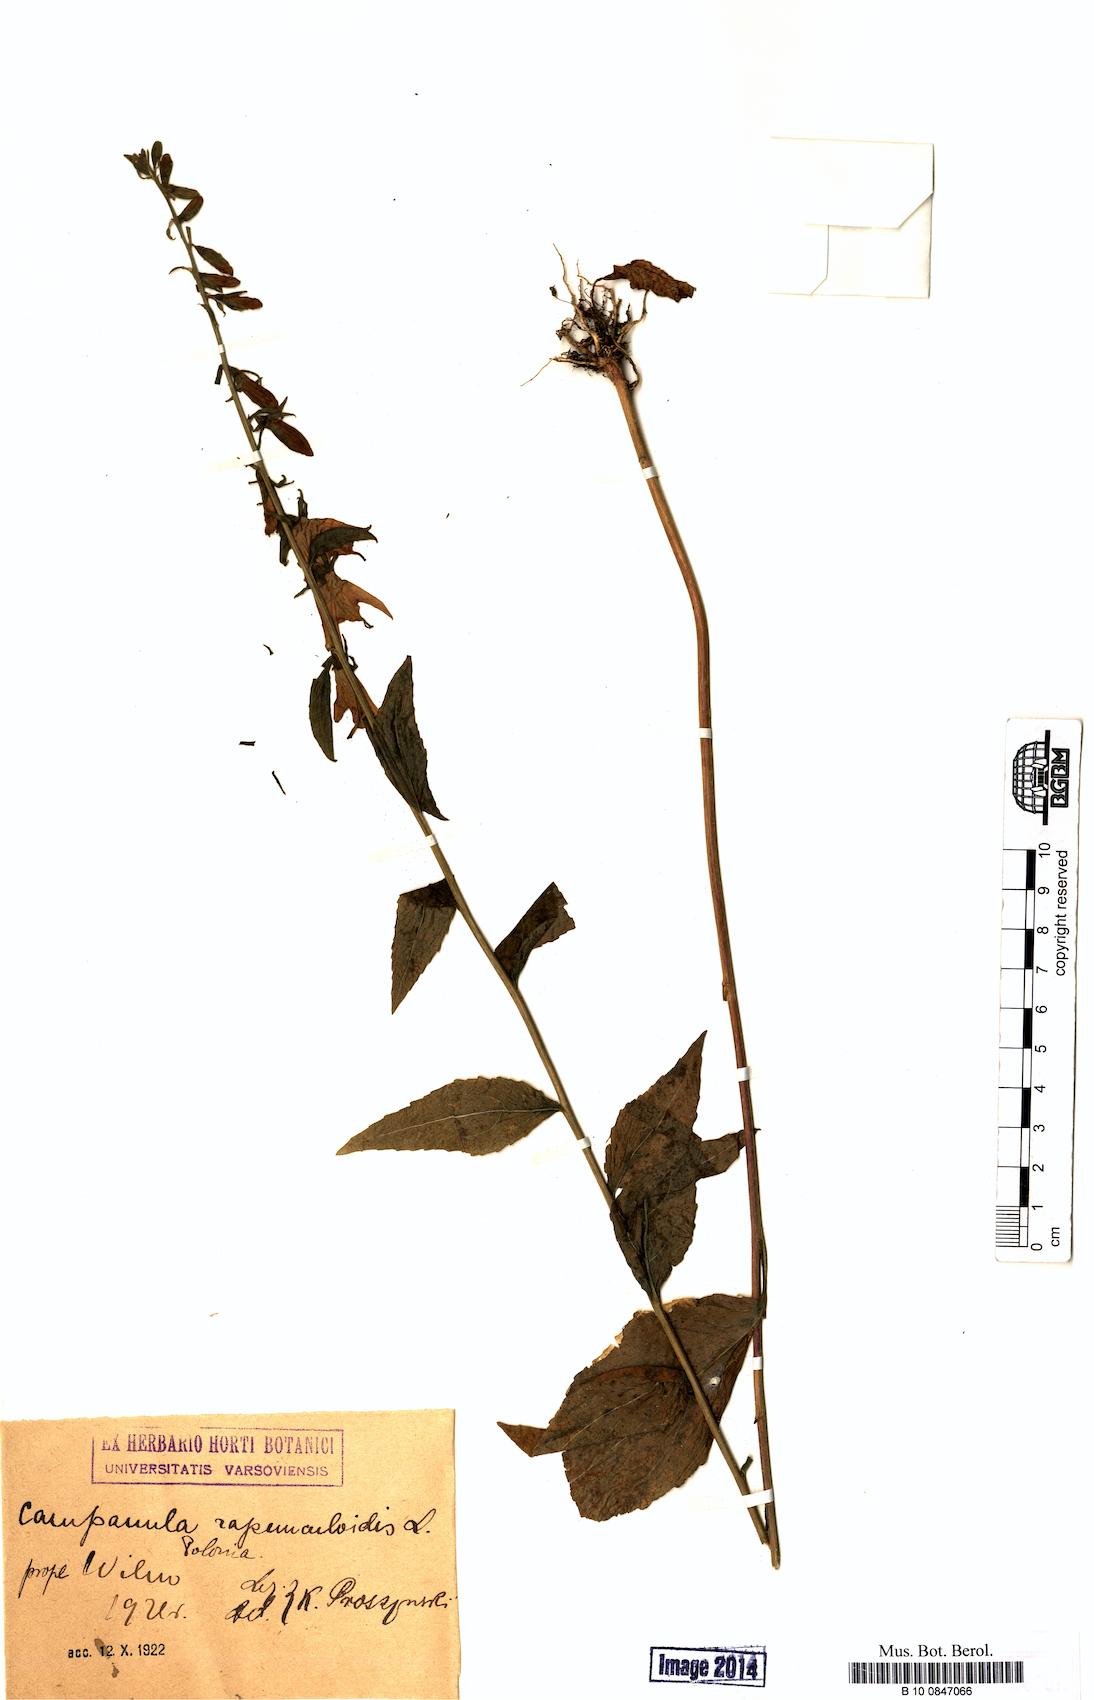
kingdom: Plantae
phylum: Tracheophyta
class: Magnoliopsida
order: Asterales
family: Campanulaceae
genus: Campanula
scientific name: Campanula rapunculoides
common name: Creeping bellflower
